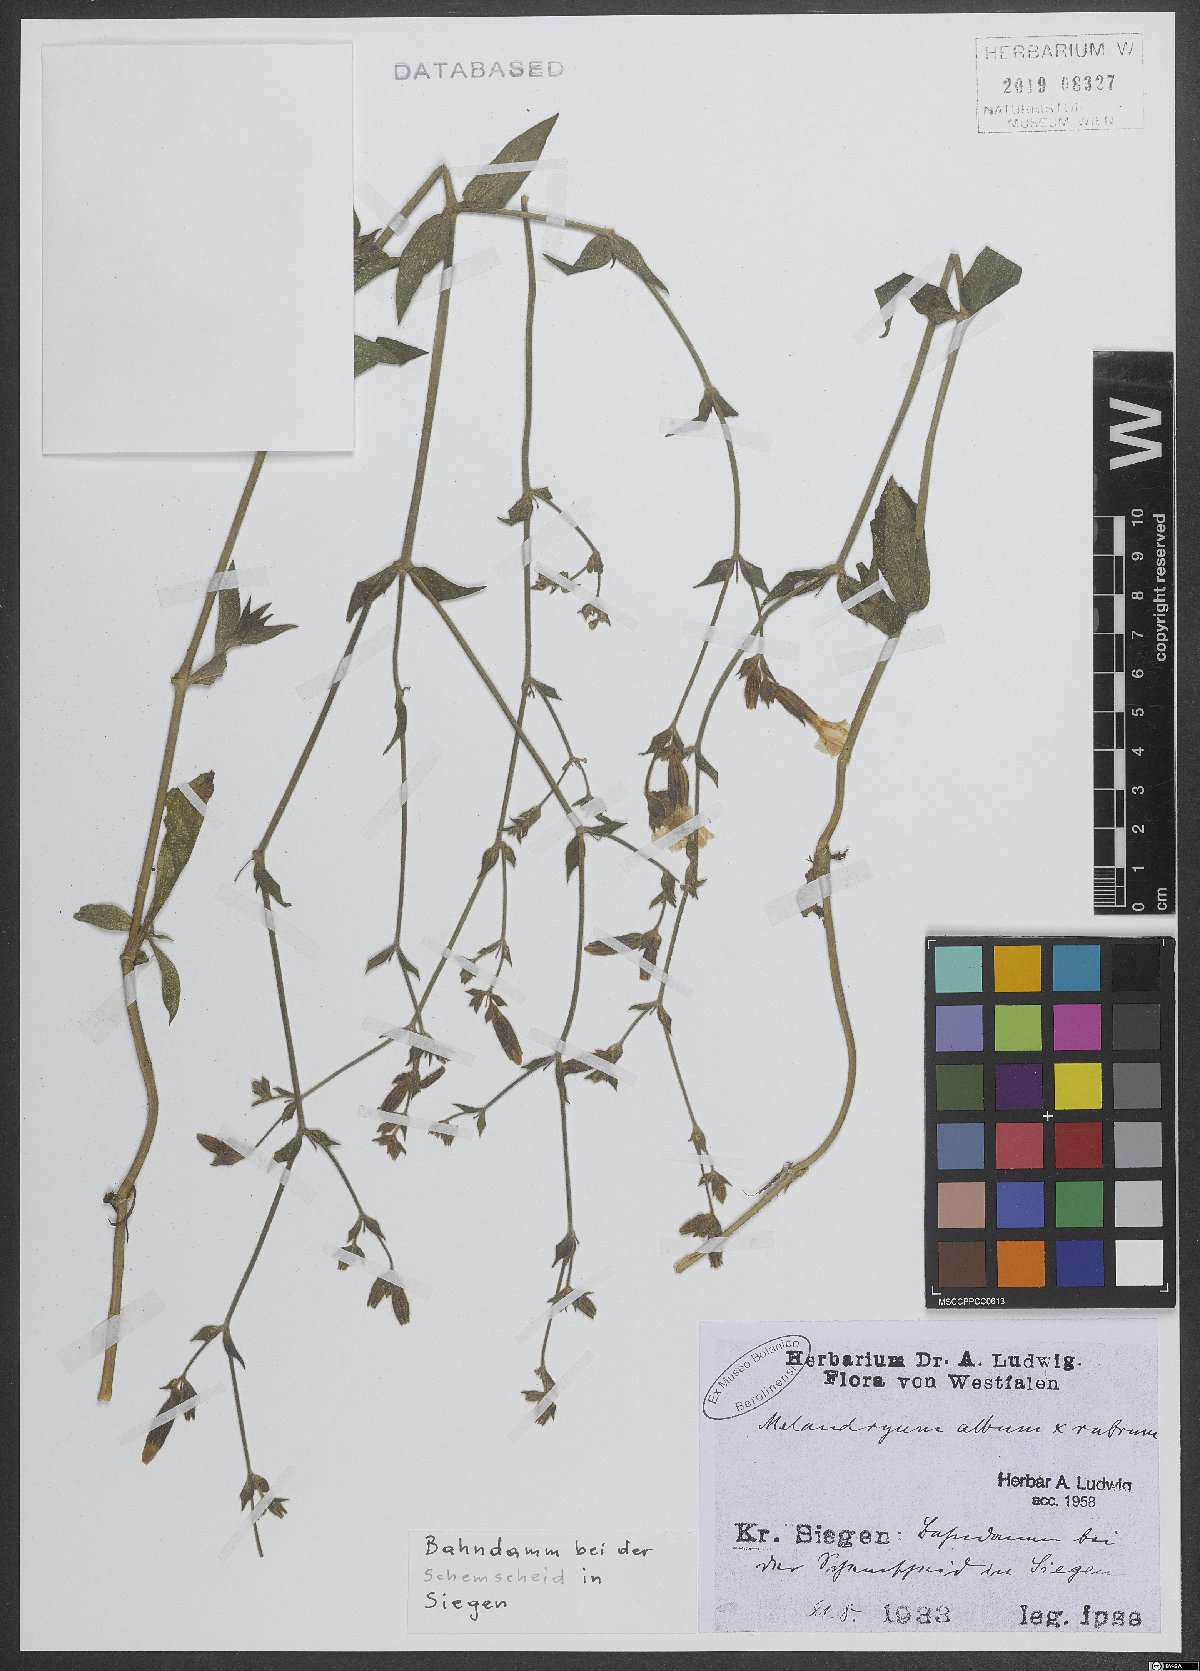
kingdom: Plantae
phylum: Tracheophyta
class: Magnoliopsida
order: Caryophyllales
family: Caryophyllaceae
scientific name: Caryophyllaceae
